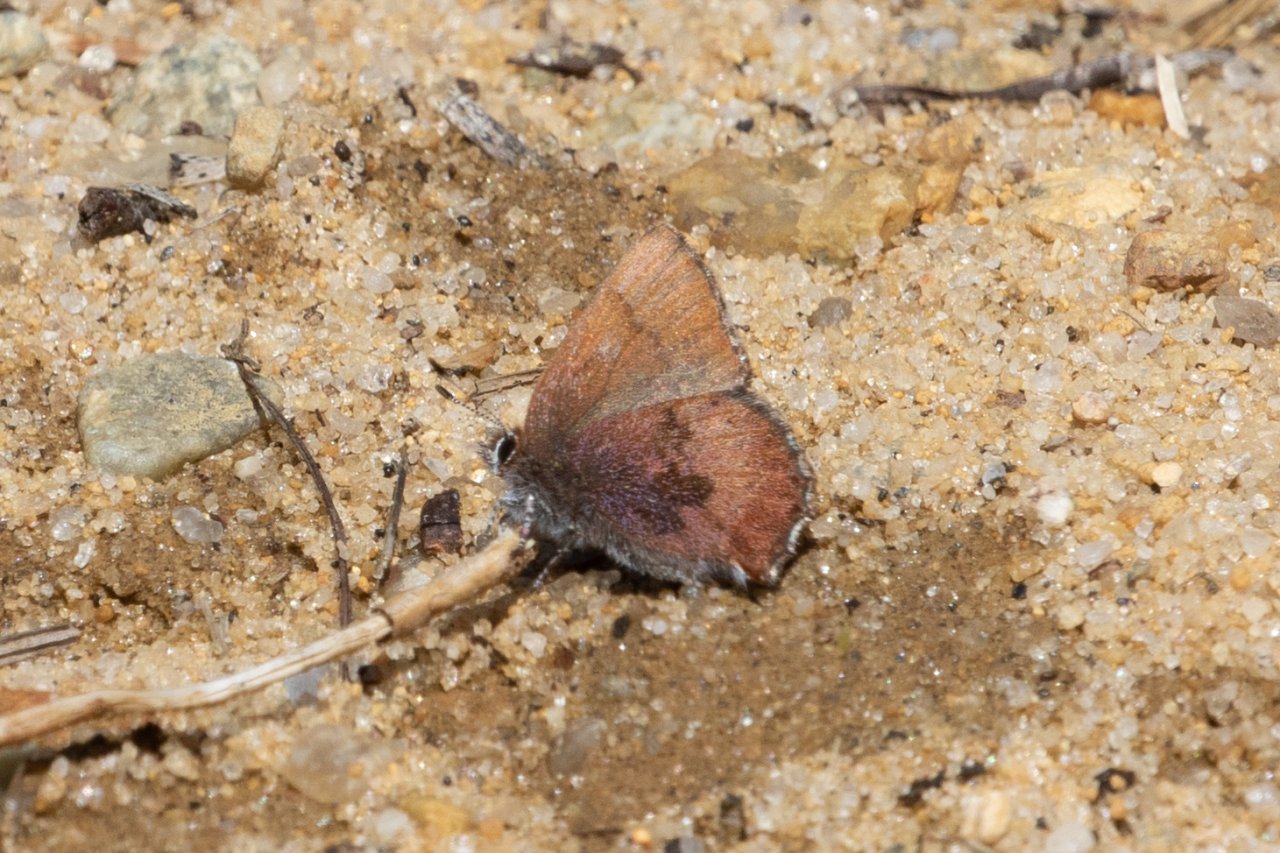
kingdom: Animalia
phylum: Arthropoda
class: Insecta
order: Lepidoptera
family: Lycaenidae
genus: Incisalia
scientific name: Incisalia irioides
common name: Brown Elfin
